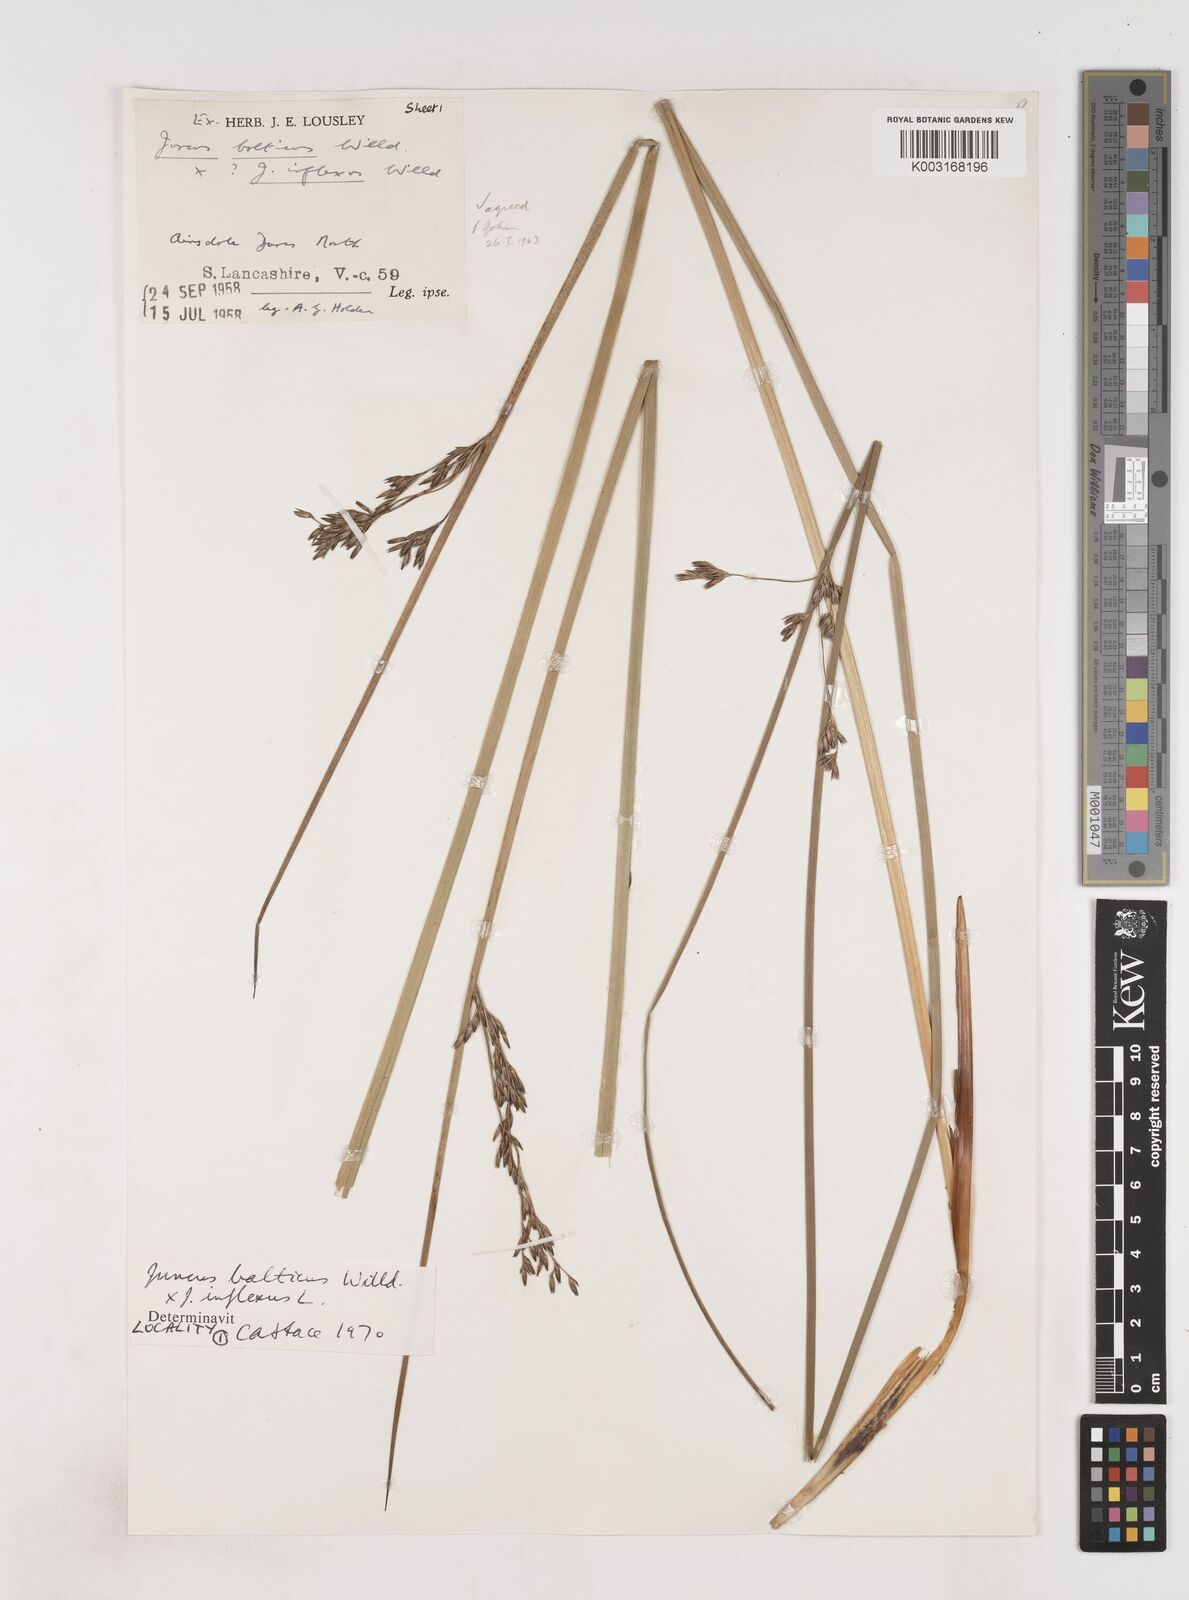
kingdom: Plantae
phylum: Tracheophyta
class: Liliopsida
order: Poales
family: Juncaceae
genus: Juncus
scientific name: Juncus balticus
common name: Baltic rush
